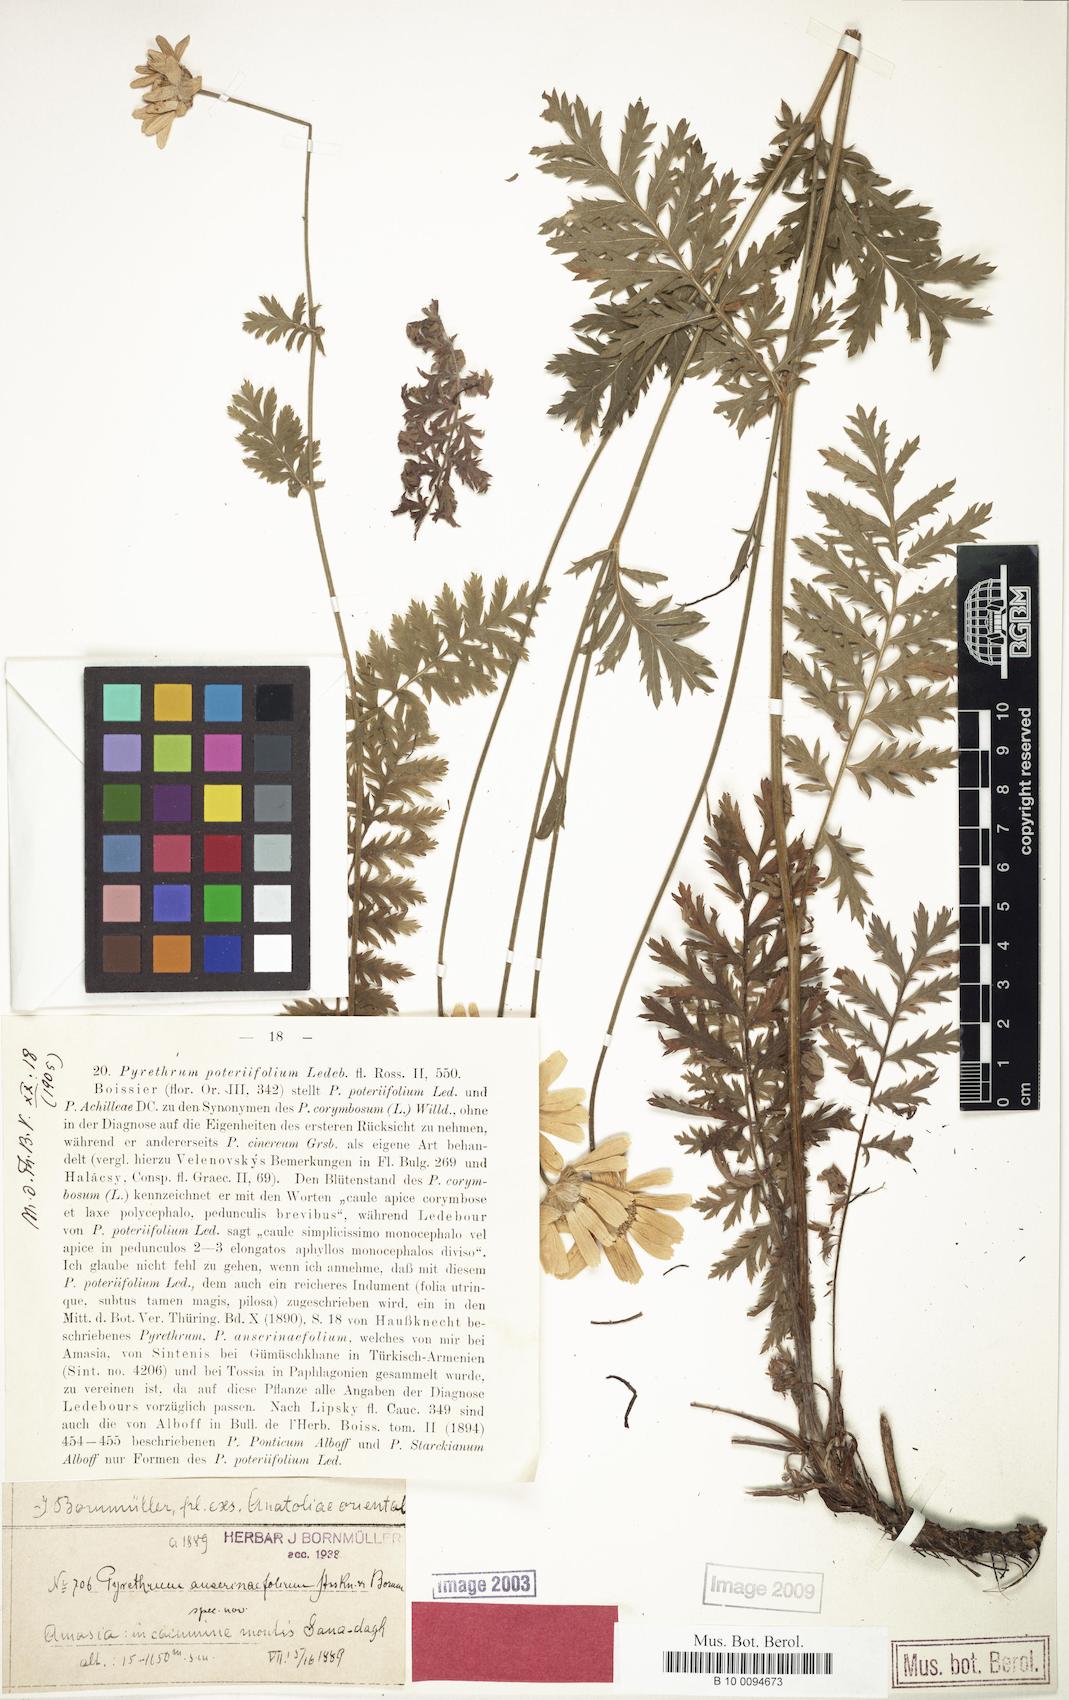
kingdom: Plantae
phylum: Tracheophyta
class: Magnoliopsida
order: Asterales
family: Asteraceae
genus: Tanacetum
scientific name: Tanacetum poteriifolium
